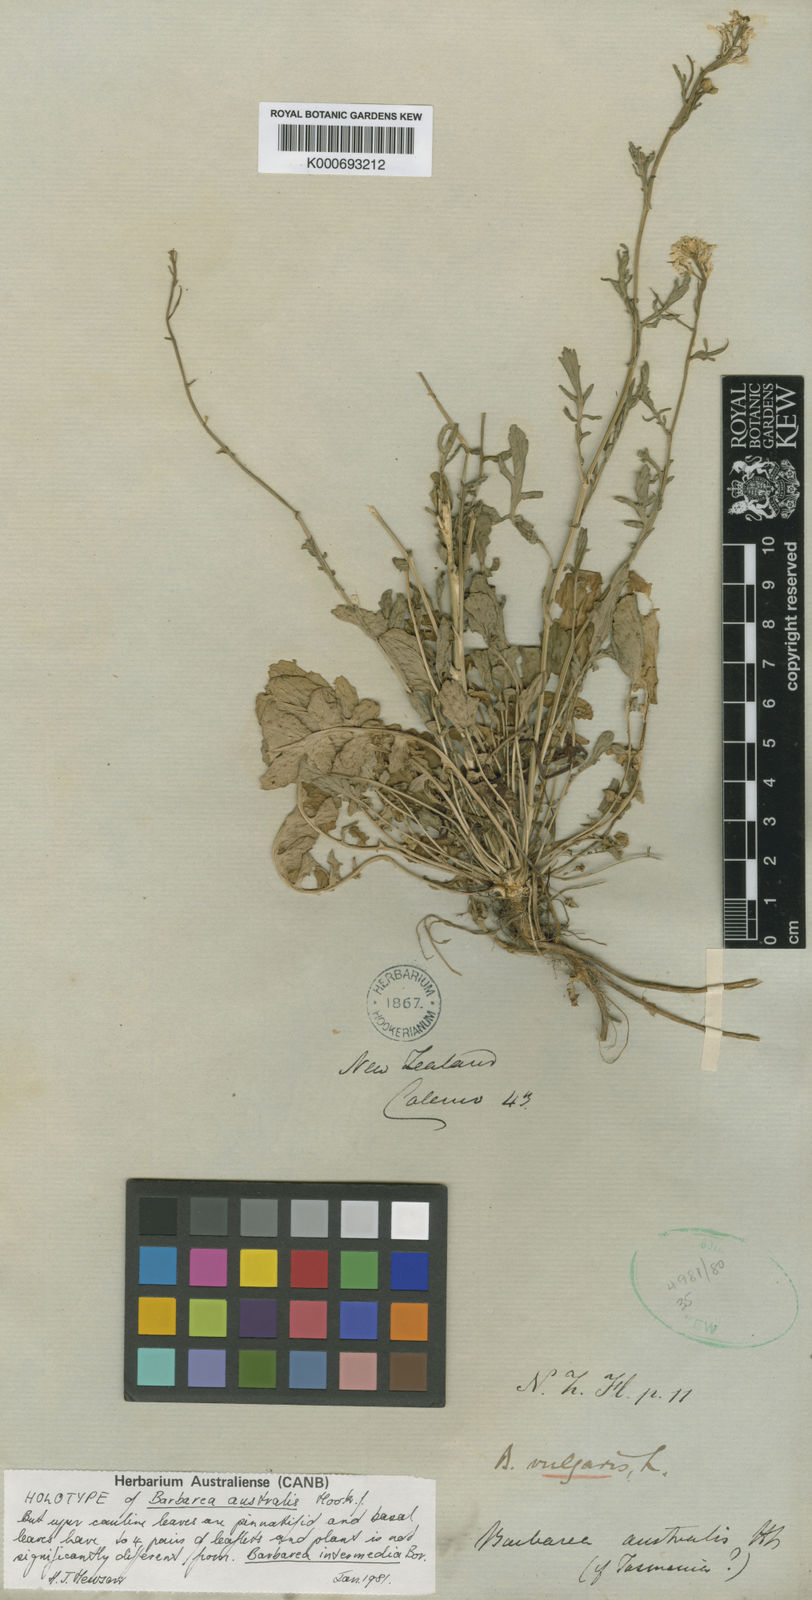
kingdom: Plantae
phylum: Tracheophyta
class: Magnoliopsida
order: Brassicales
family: Brassicaceae
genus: Barbarea
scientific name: Barbarea australis
